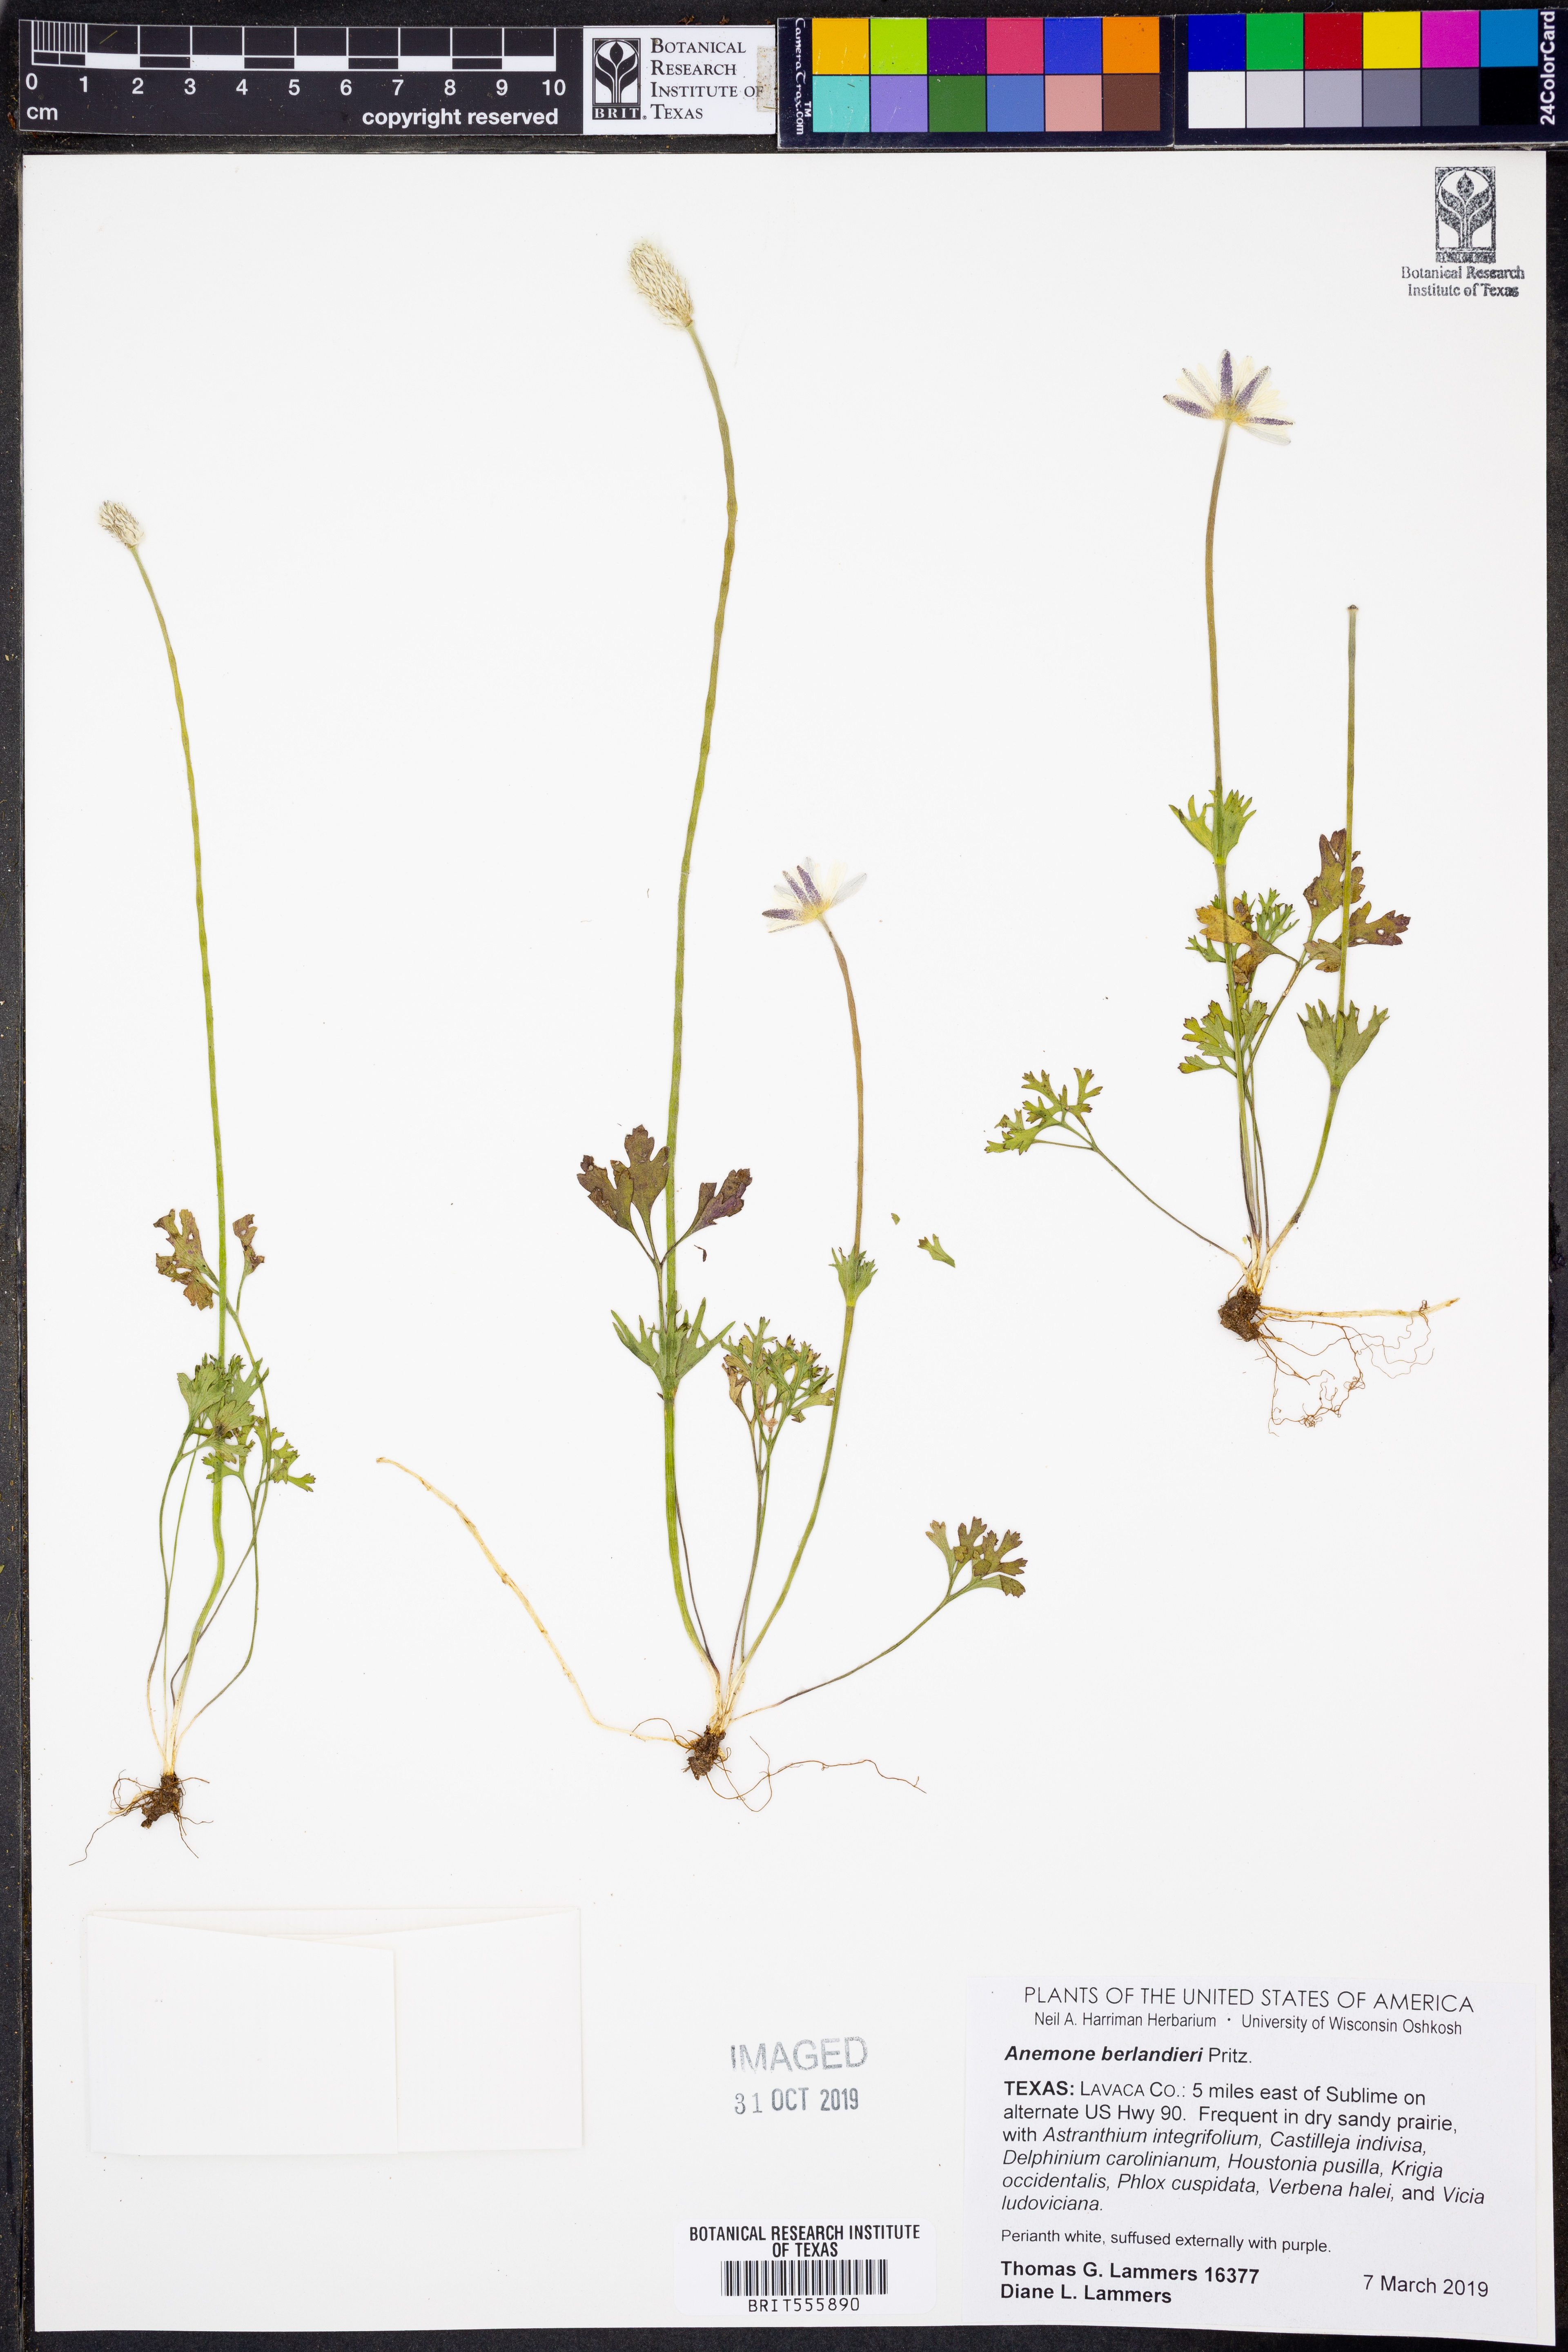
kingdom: Plantae
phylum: Tracheophyta
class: Magnoliopsida
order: Ranunculales
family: Ranunculaceae
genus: Anemone
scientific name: Anemone berlandieri
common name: Ten-petal anemone
